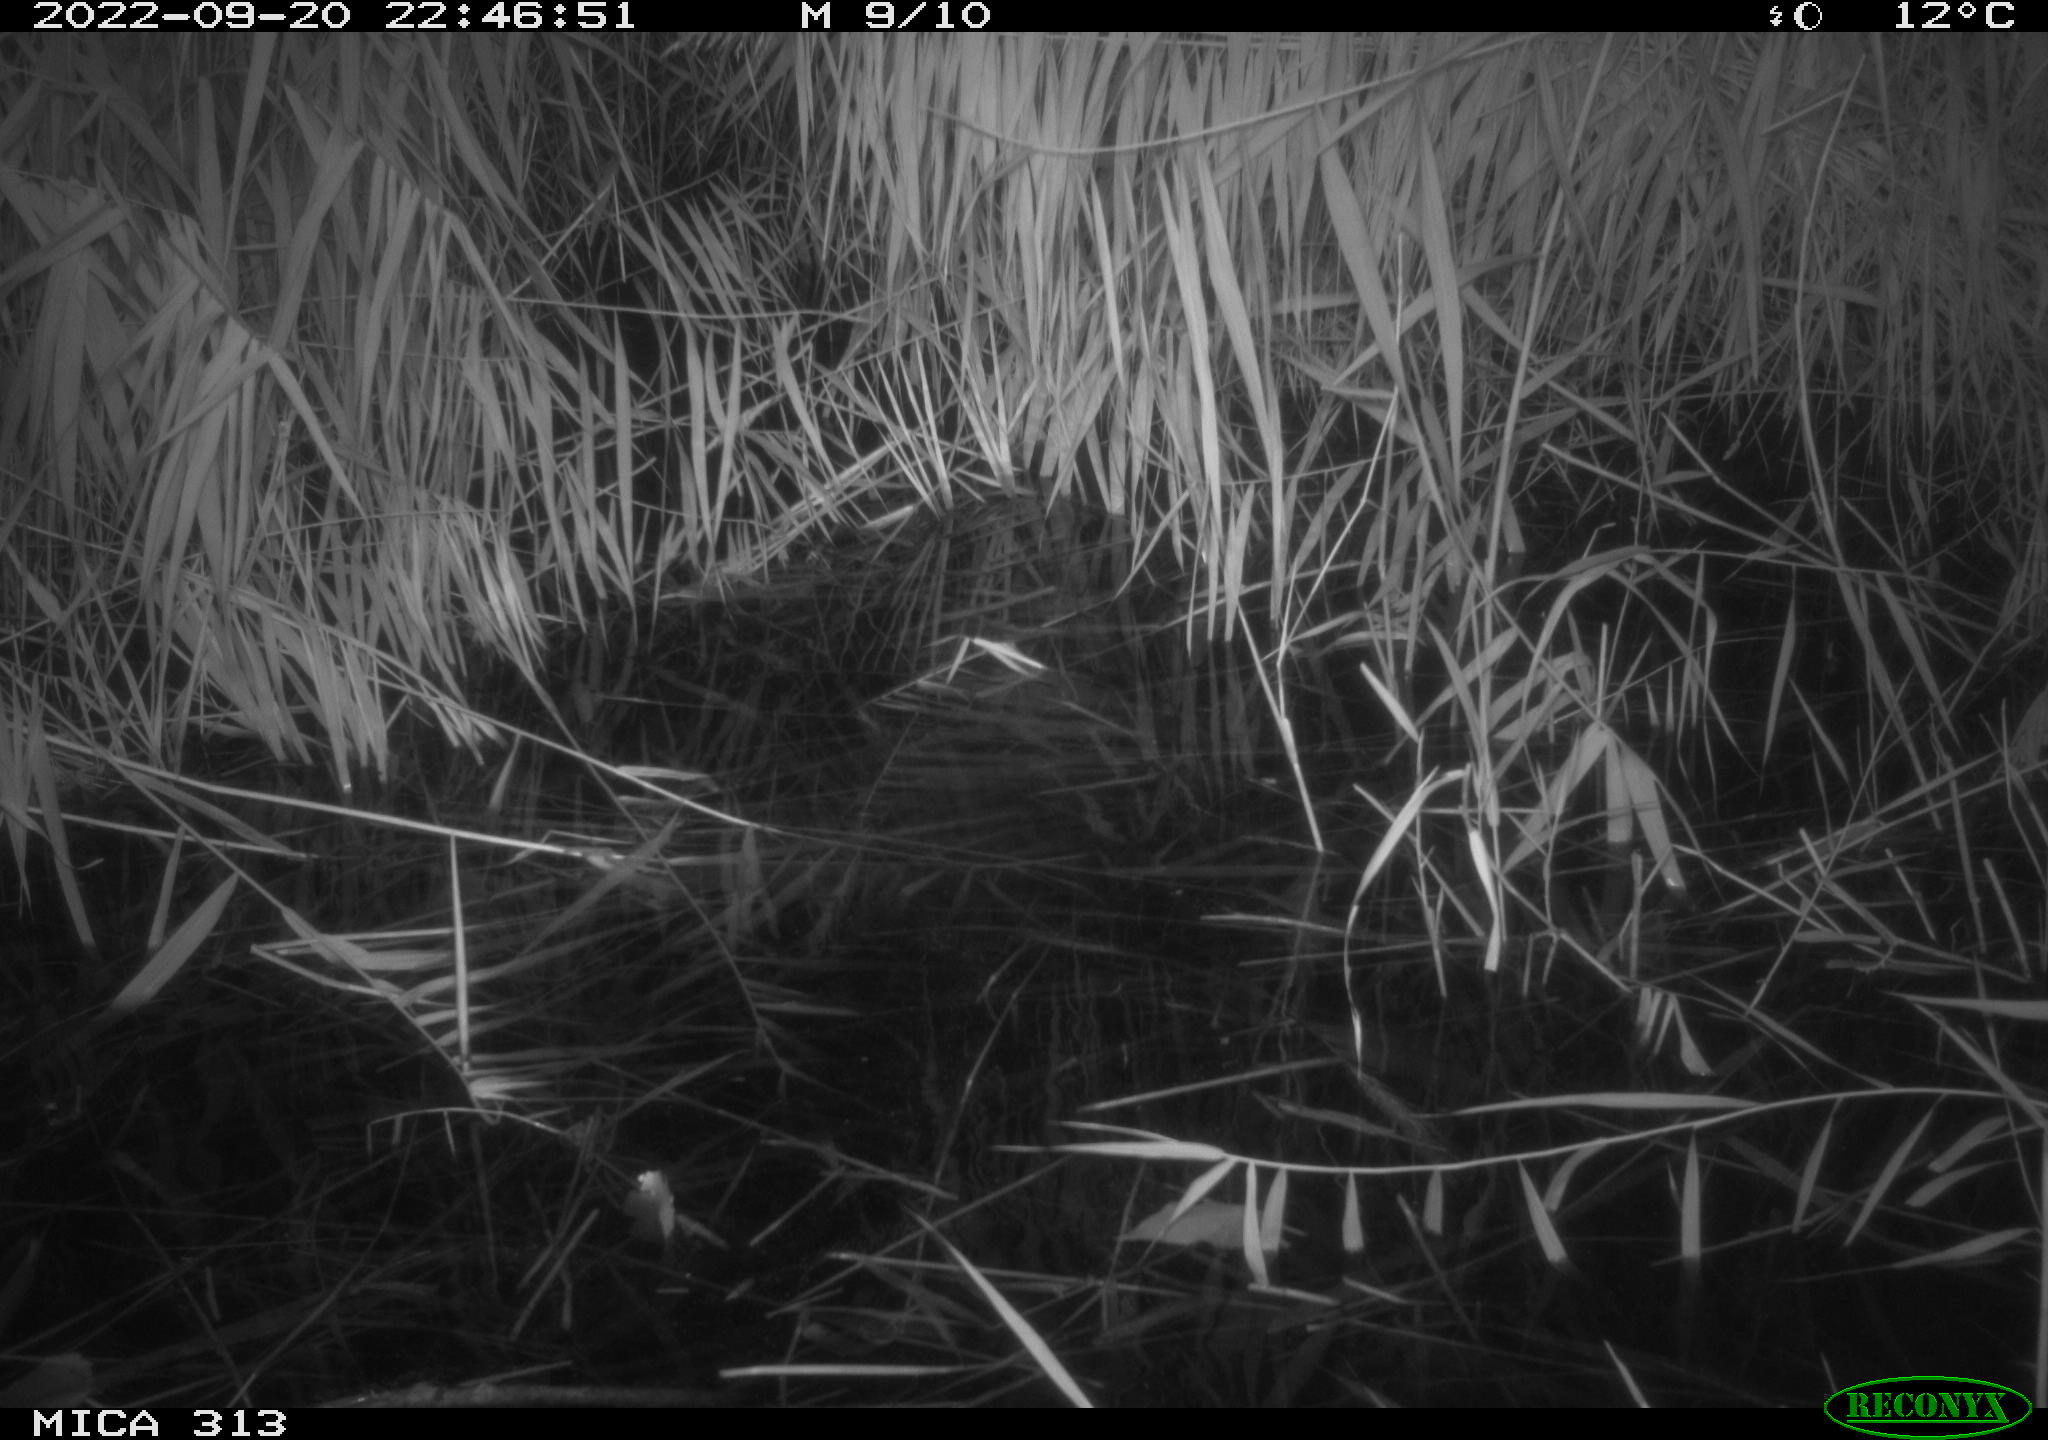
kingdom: Animalia
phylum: Chordata
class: Mammalia
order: Rodentia
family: Muridae
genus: Rattus
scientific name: Rattus norvegicus
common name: Brown rat
